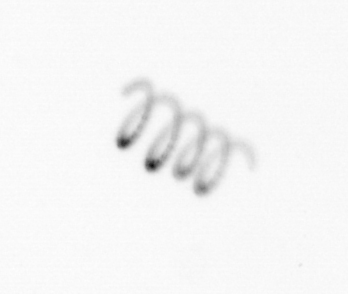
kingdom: Chromista
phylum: Ochrophyta
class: Bacillariophyceae
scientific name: Bacillariophyceae
